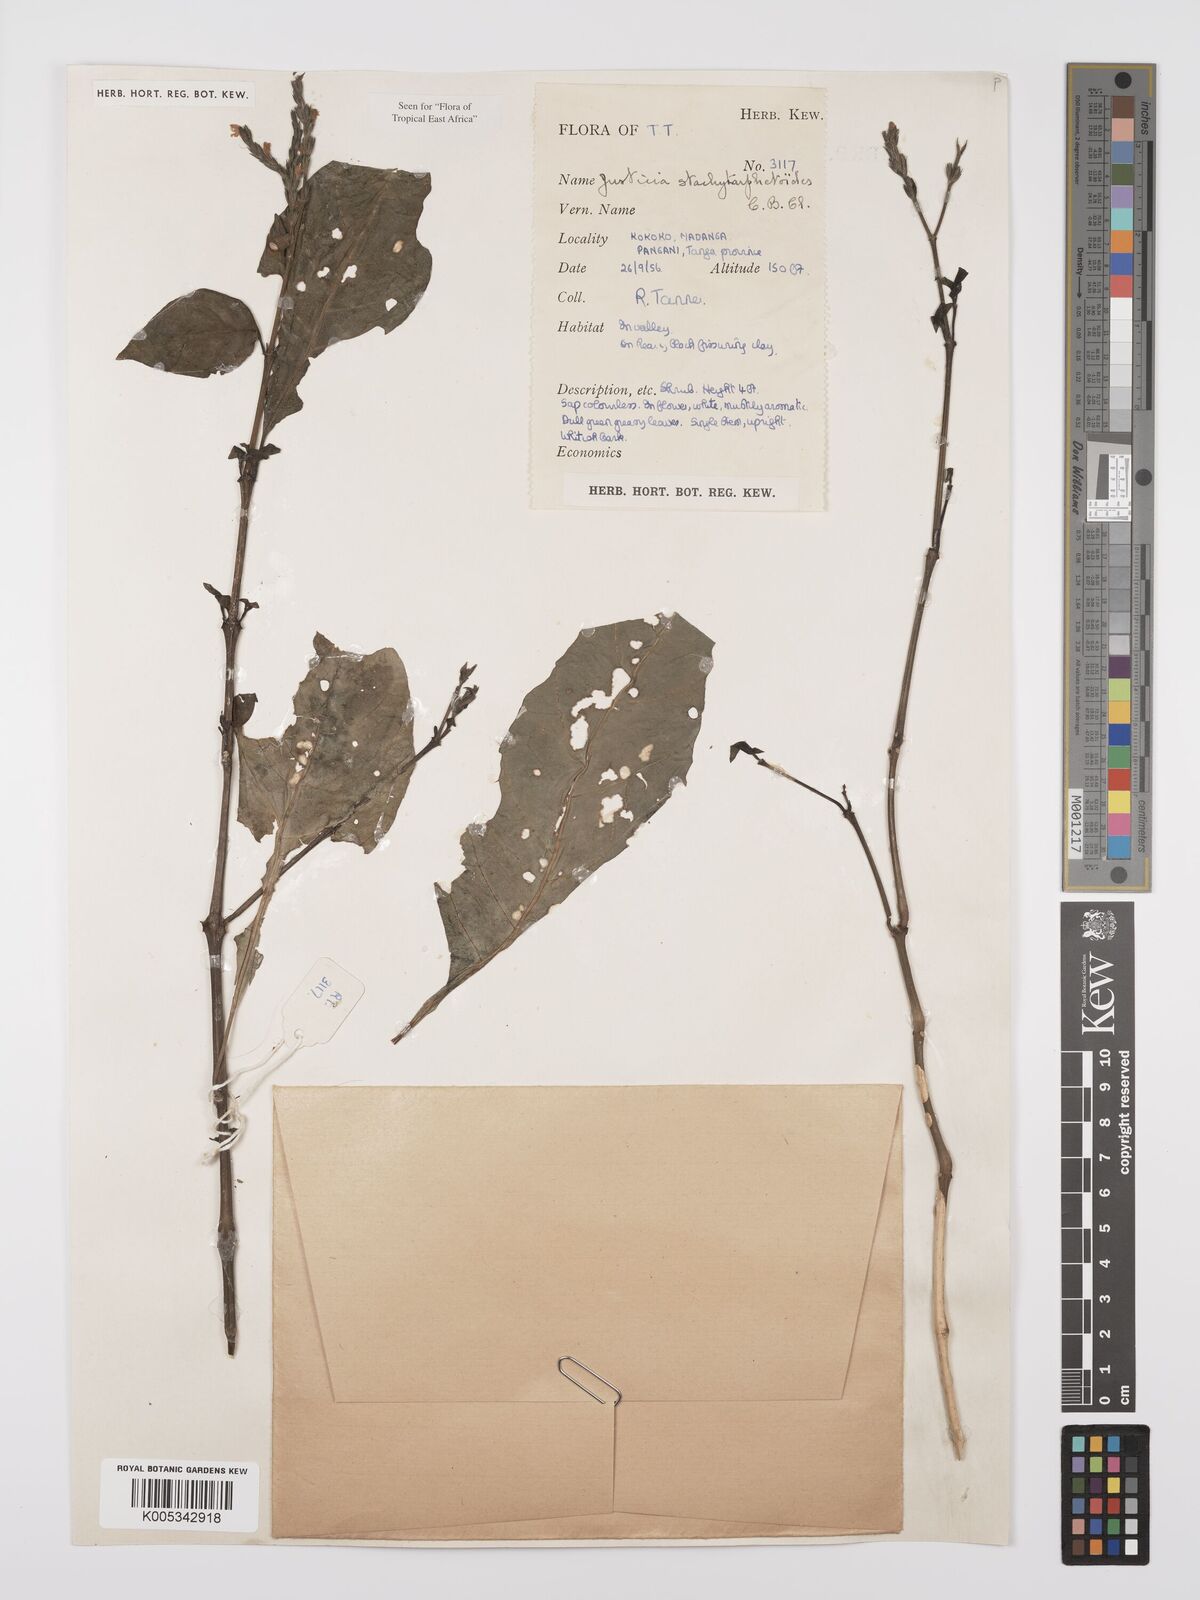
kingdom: Plantae
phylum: Tracheophyta
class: Magnoliopsida
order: Lamiales
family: Acanthaceae
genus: Justicia
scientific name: Justicia stachytarphetoides
